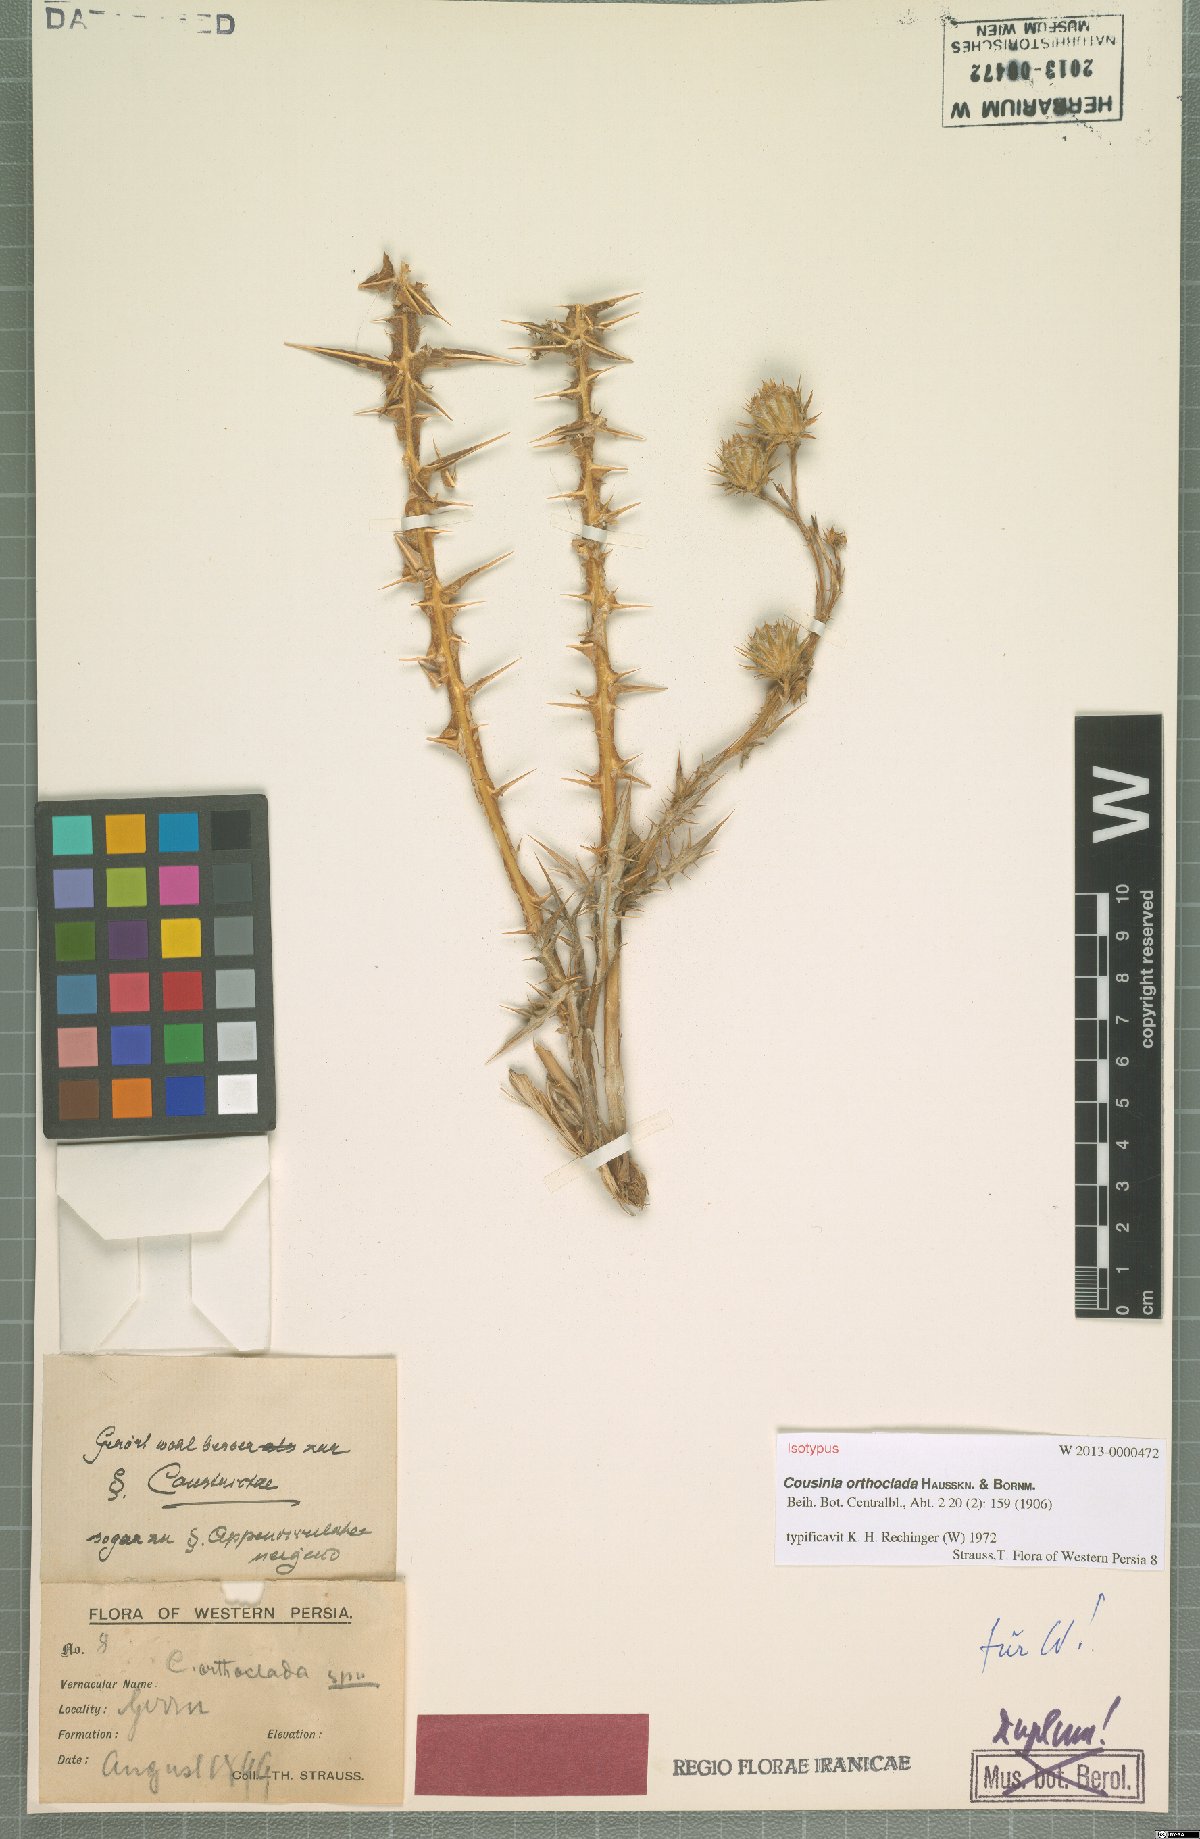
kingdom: Plantae
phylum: Tracheophyta
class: Magnoliopsida
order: Asterales
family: Asteraceae
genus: Cousinia
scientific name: Cousinia orthoclada
